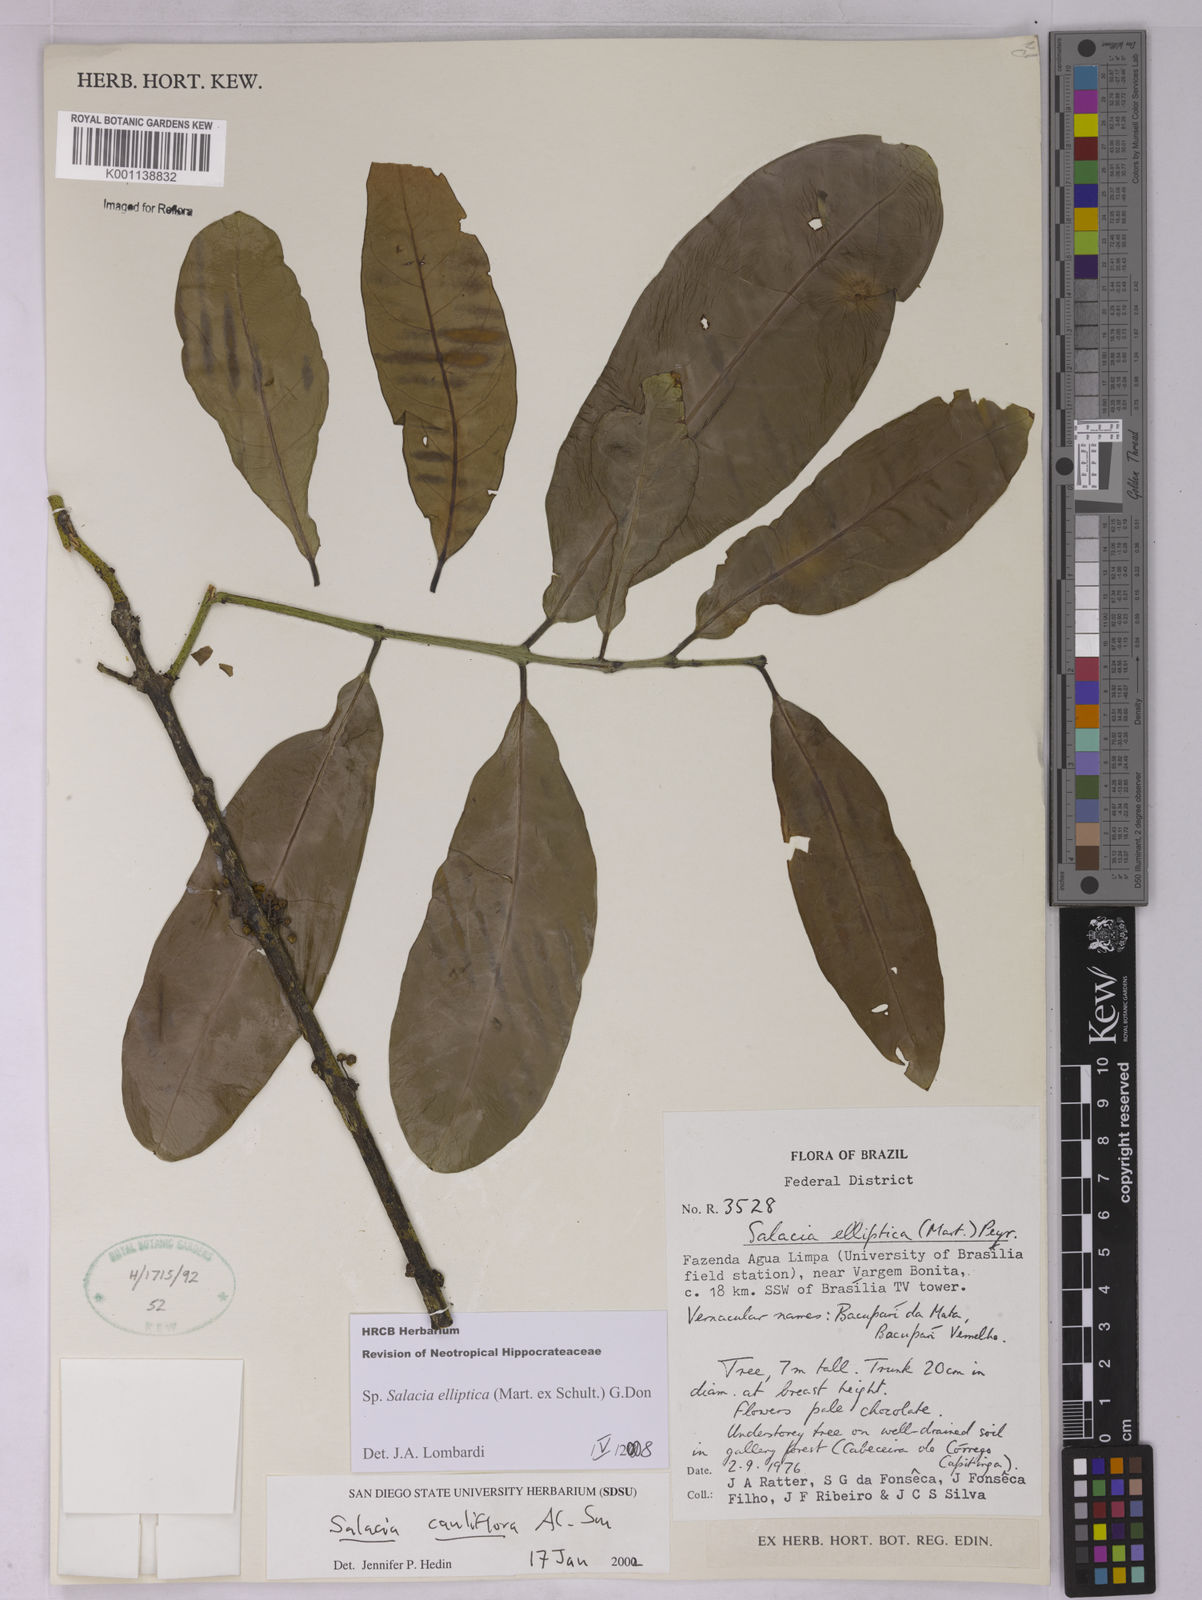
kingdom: Plantae
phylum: Tracheophyta
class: Magnoliopsida
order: Celastrales
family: Celastraceae
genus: Salacia
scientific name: Salacia elliptica
